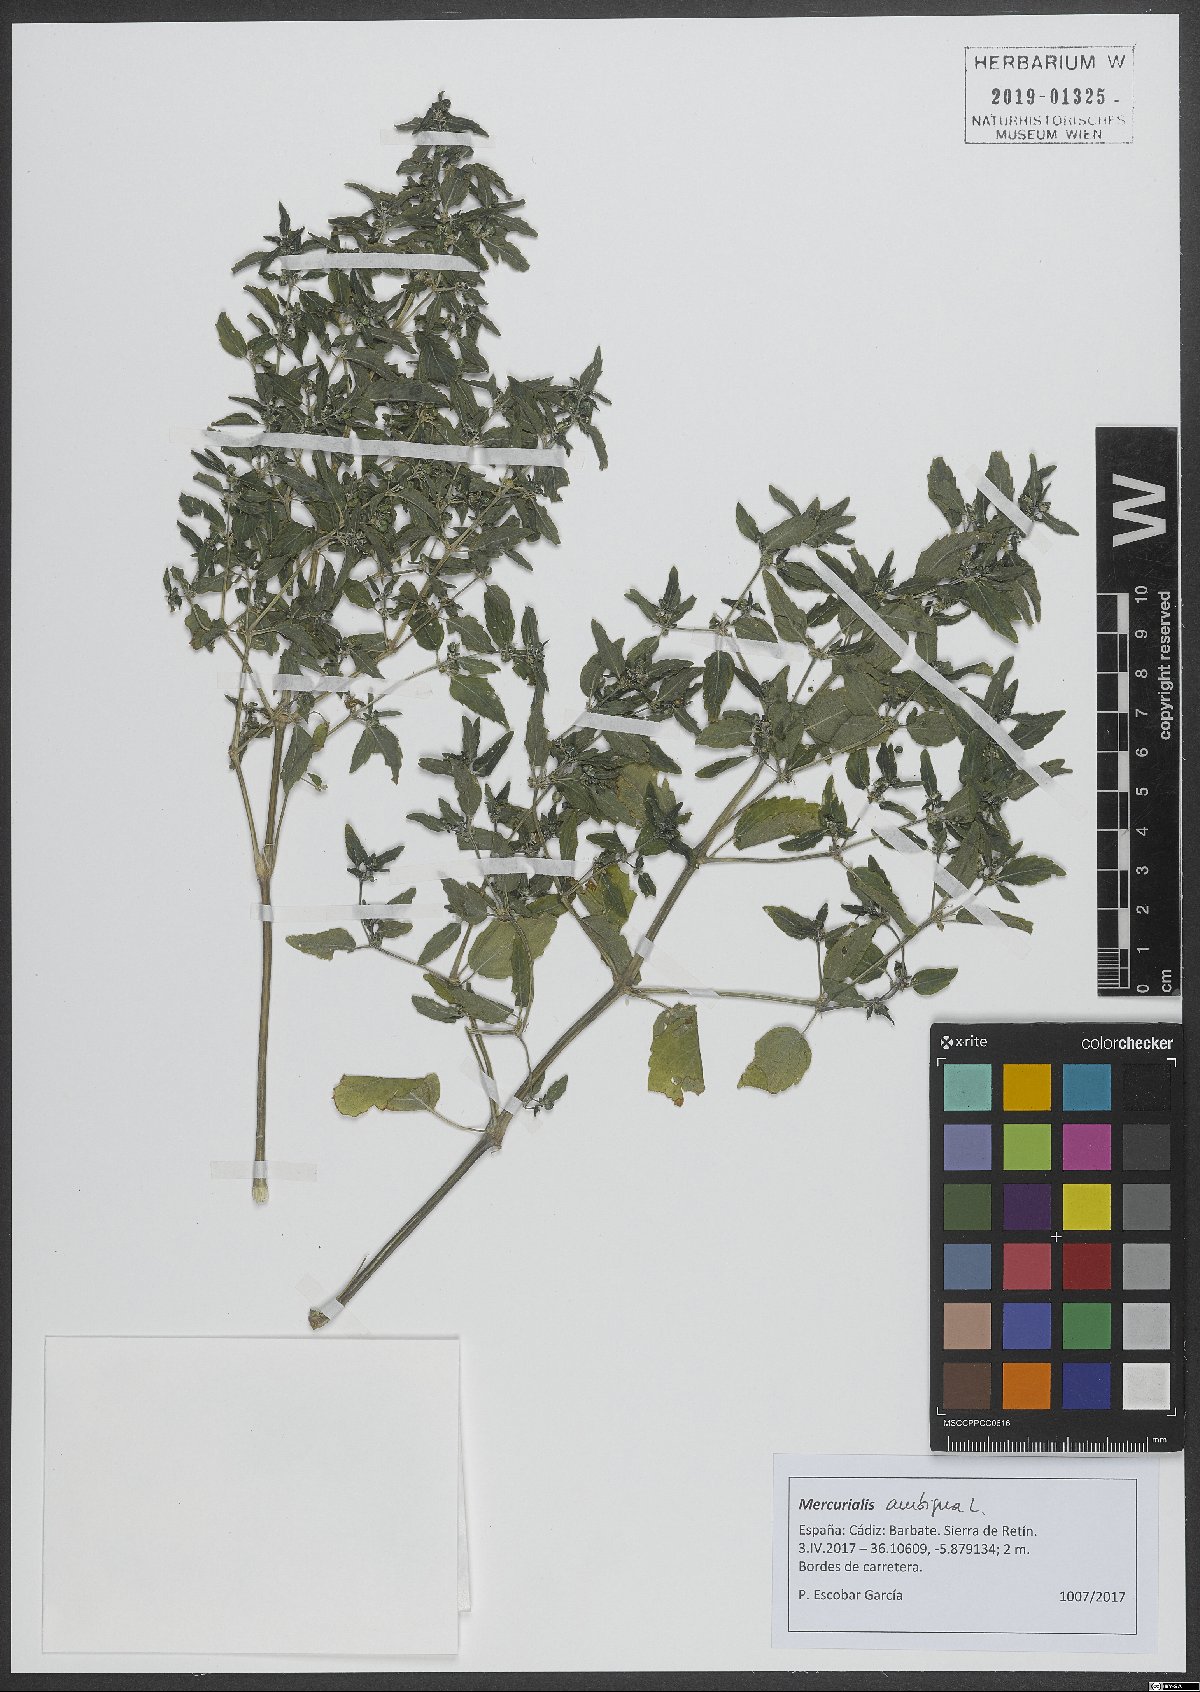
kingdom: Plantae
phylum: Tracheophyta
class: Magnoliopsida
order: Malpighiales
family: Euphorbiaceae
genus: Mercurialis
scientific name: Mercurialis annua
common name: Annual mercury
